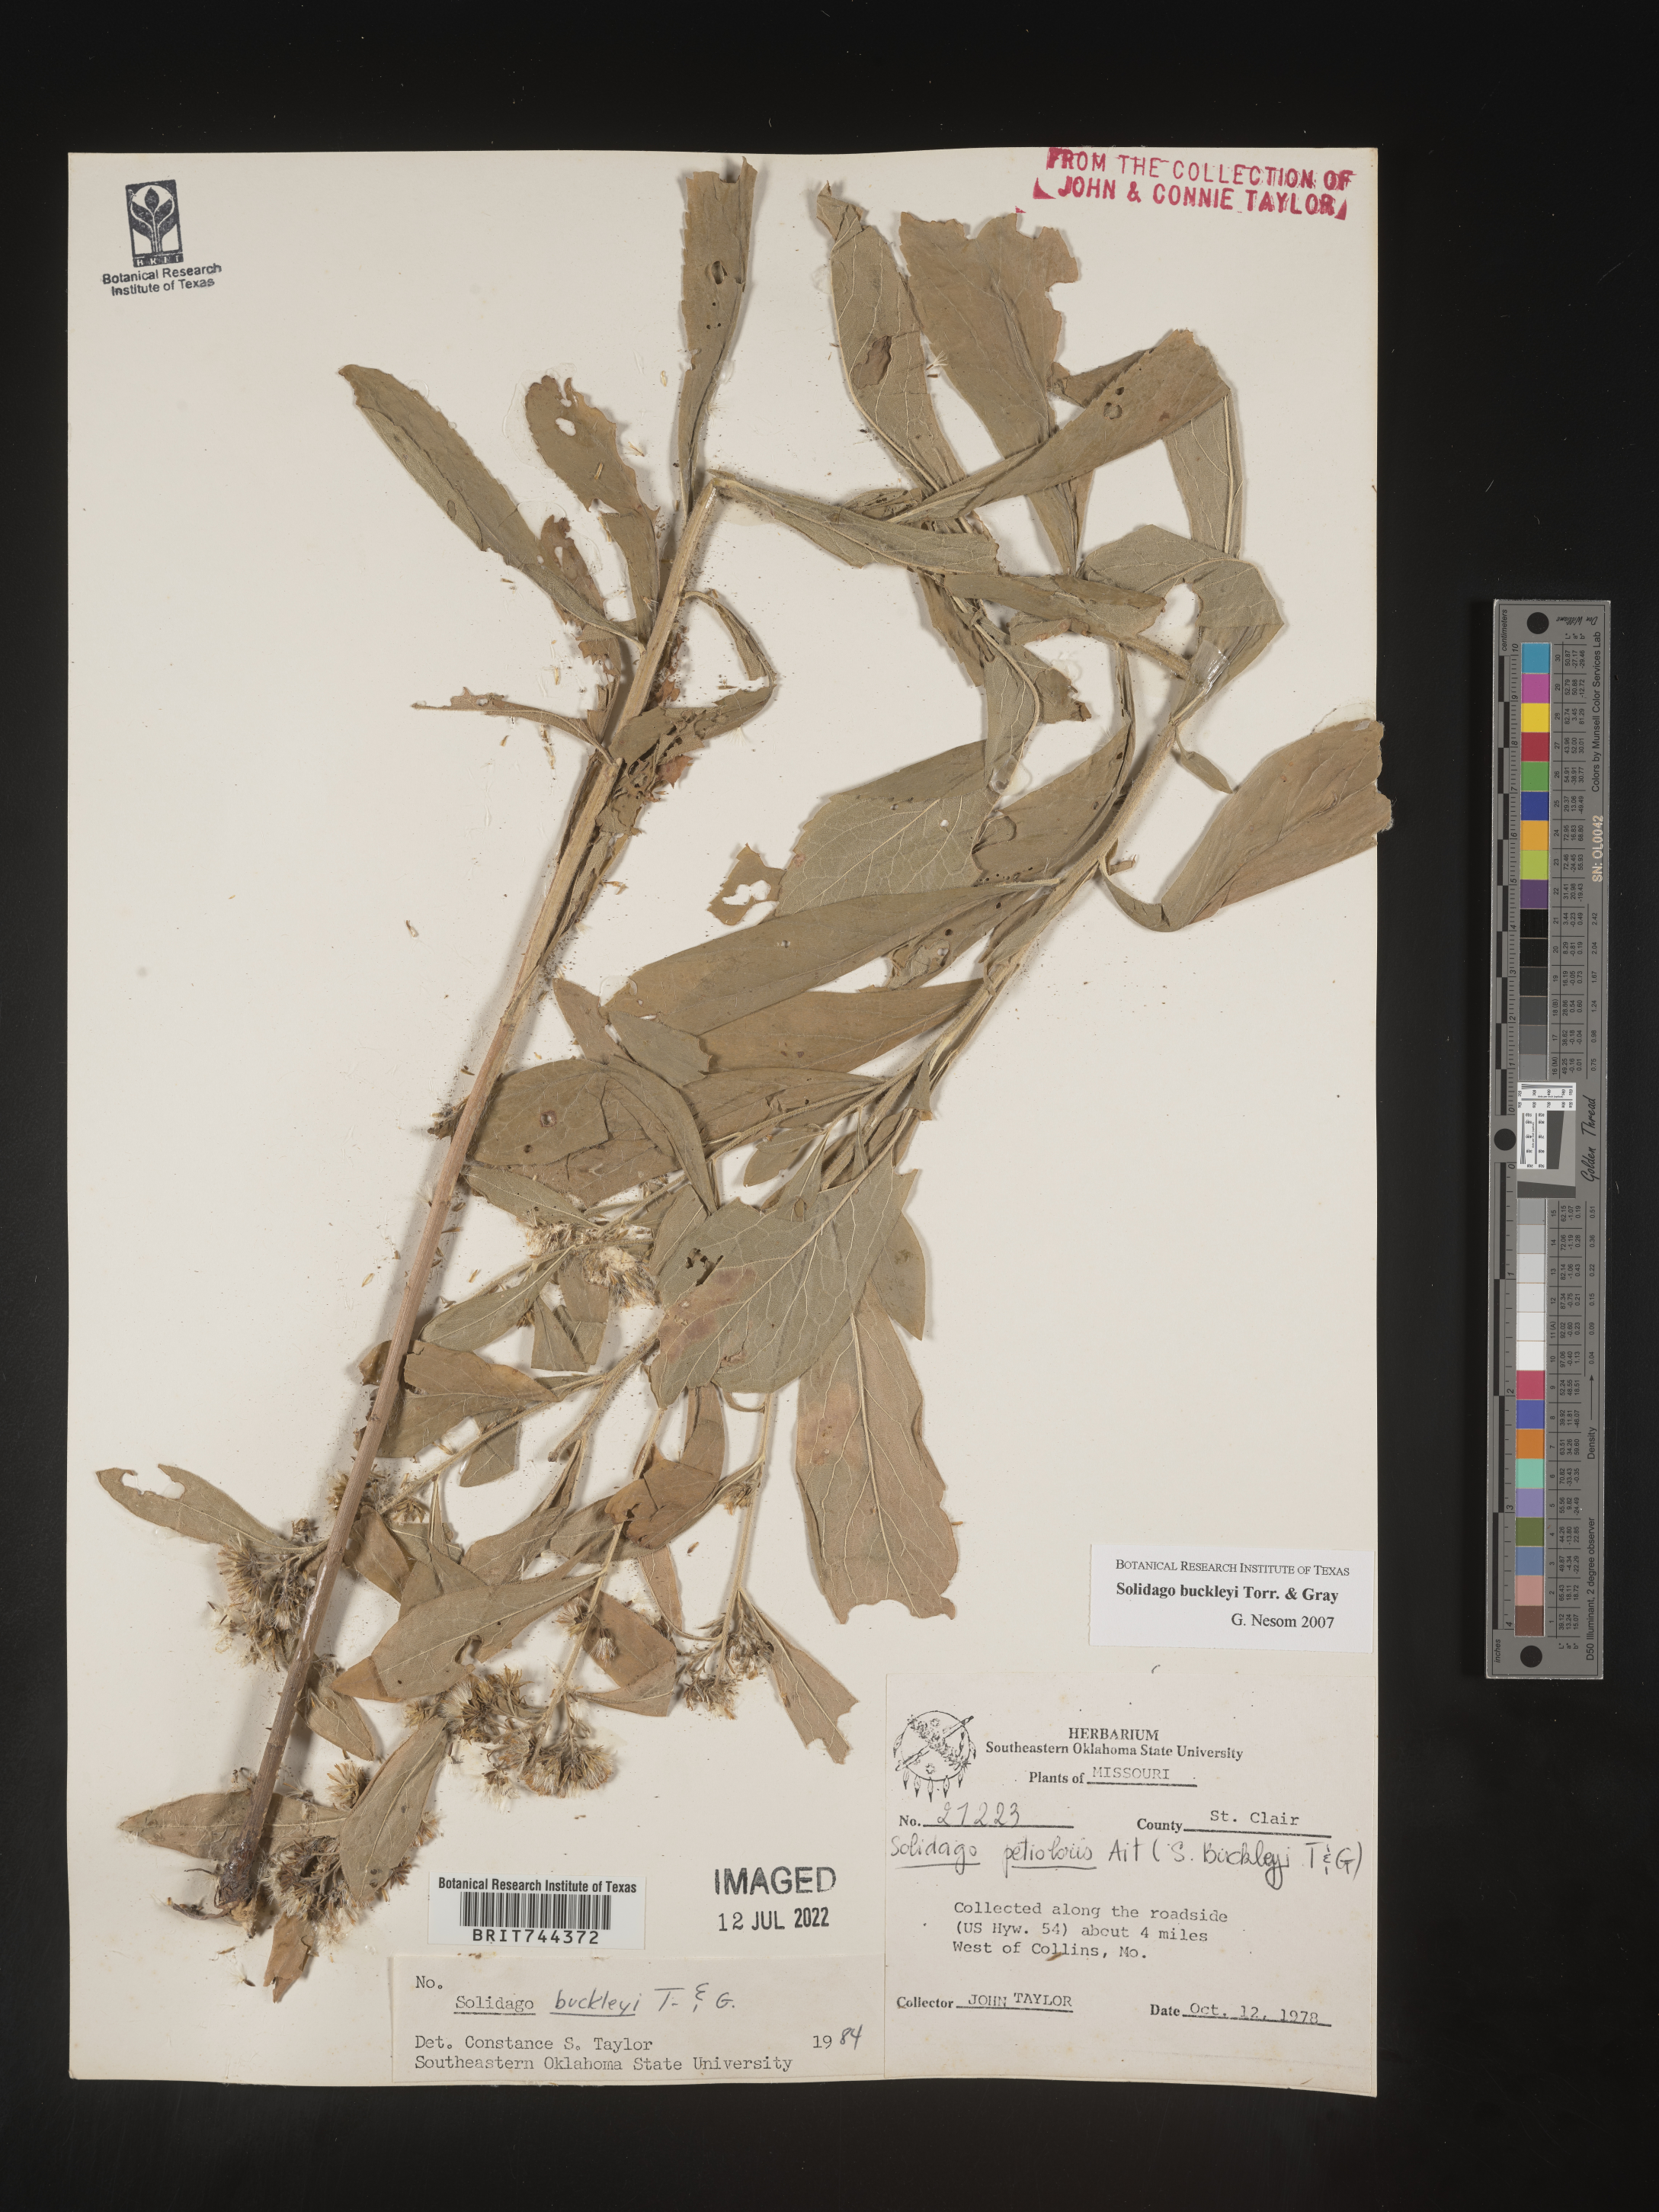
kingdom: Plantae
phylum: Tracheophyta
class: Magnoliopsida
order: Asterales
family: Asteraceae
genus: Solidago
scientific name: Solidago buckleyi
